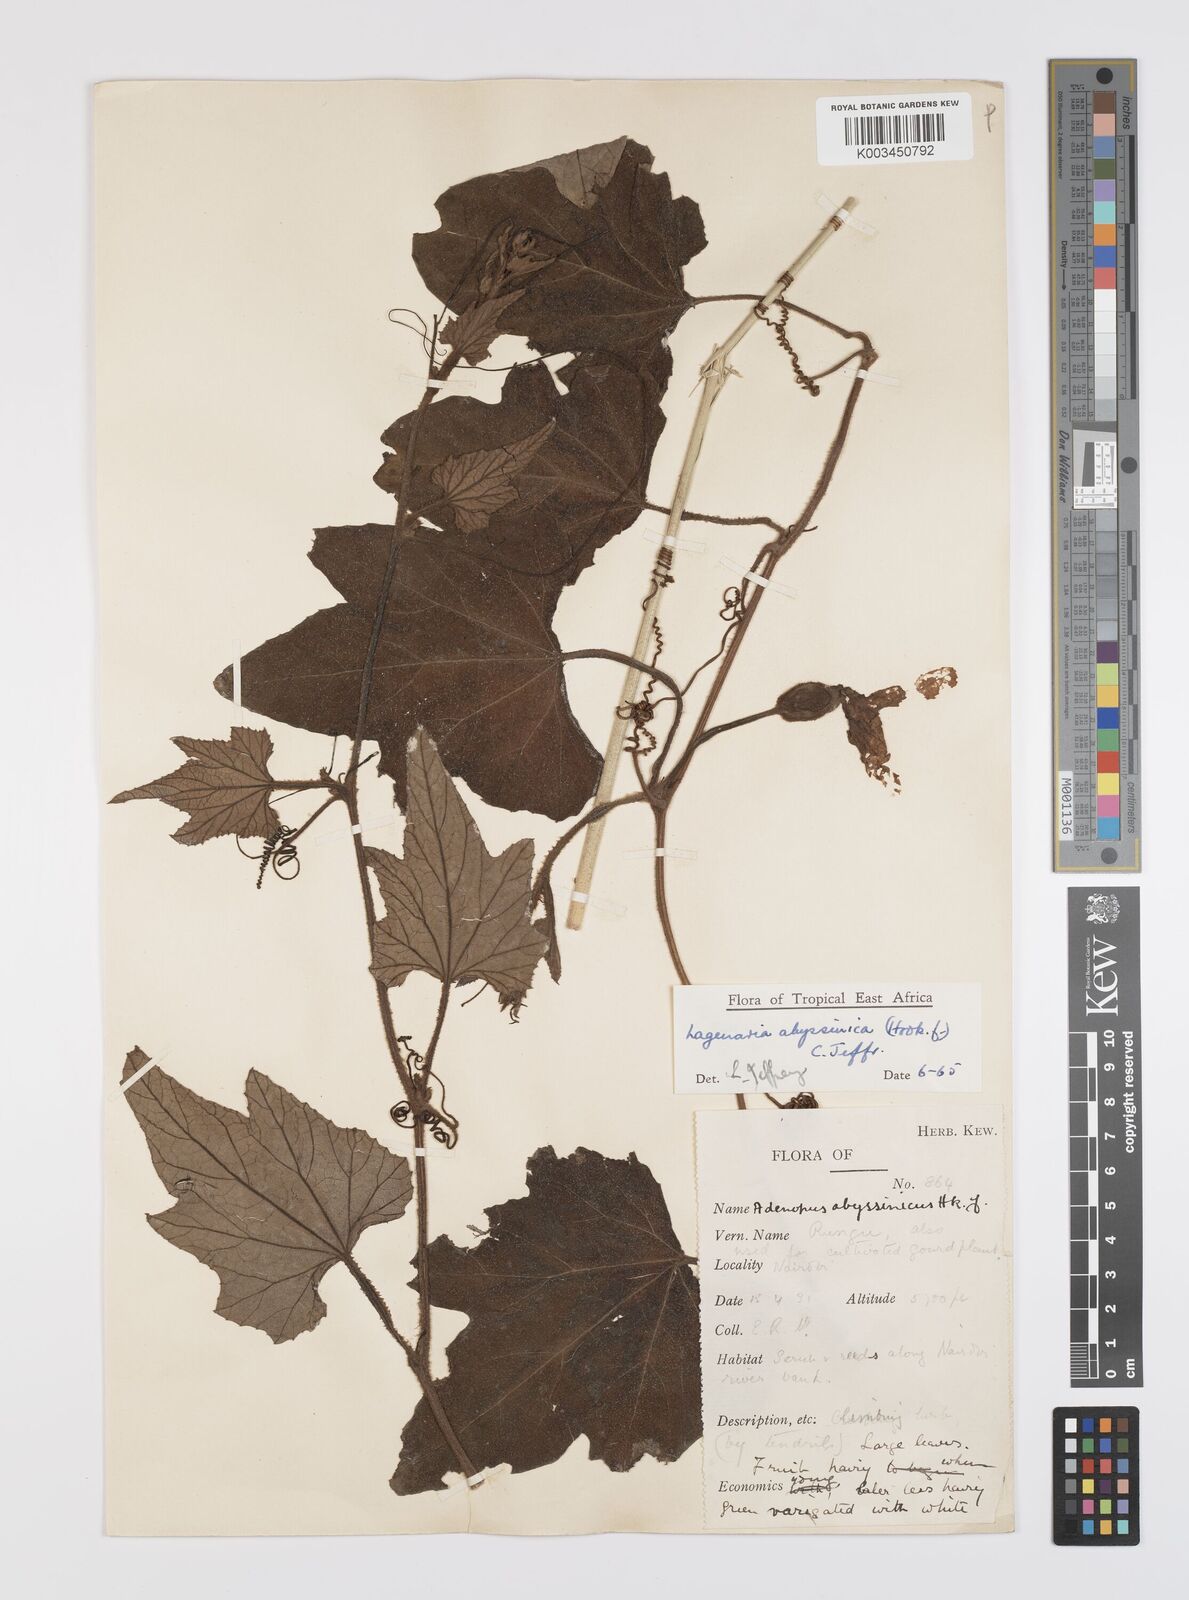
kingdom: Plantae
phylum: Tracheophyta
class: Magnoliopsida
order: Cucurbitales
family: Cucurbitaceae
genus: Lagenaria
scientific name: Lagenaria abyssinica
